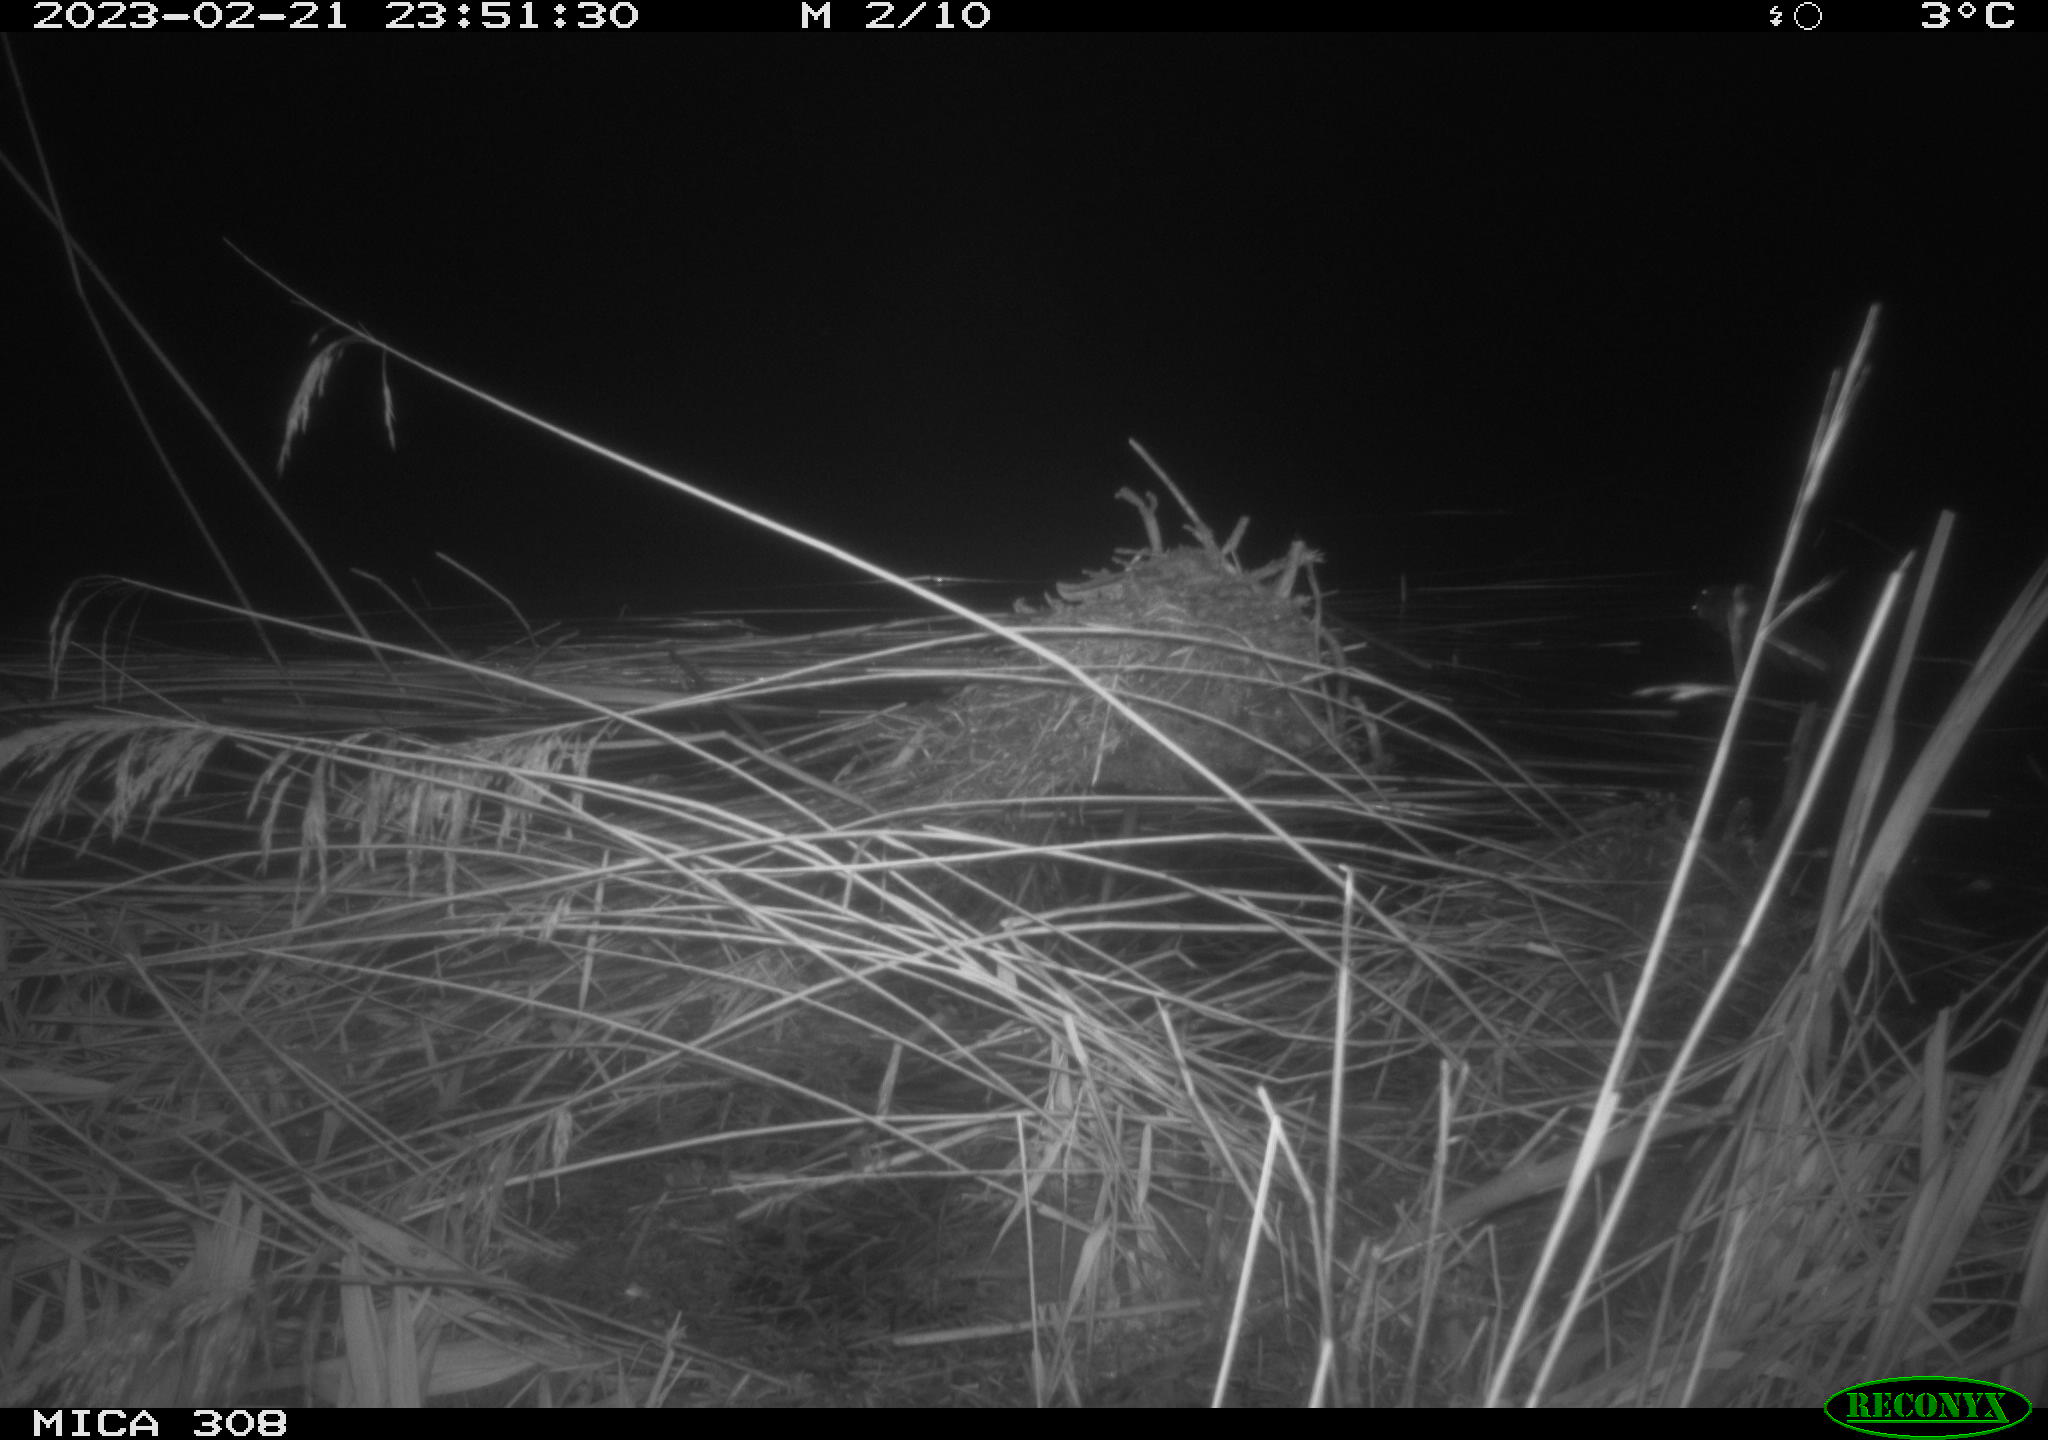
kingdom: Animalia
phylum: Chordata
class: Mammalia
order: Rodentia
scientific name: Rodentia
